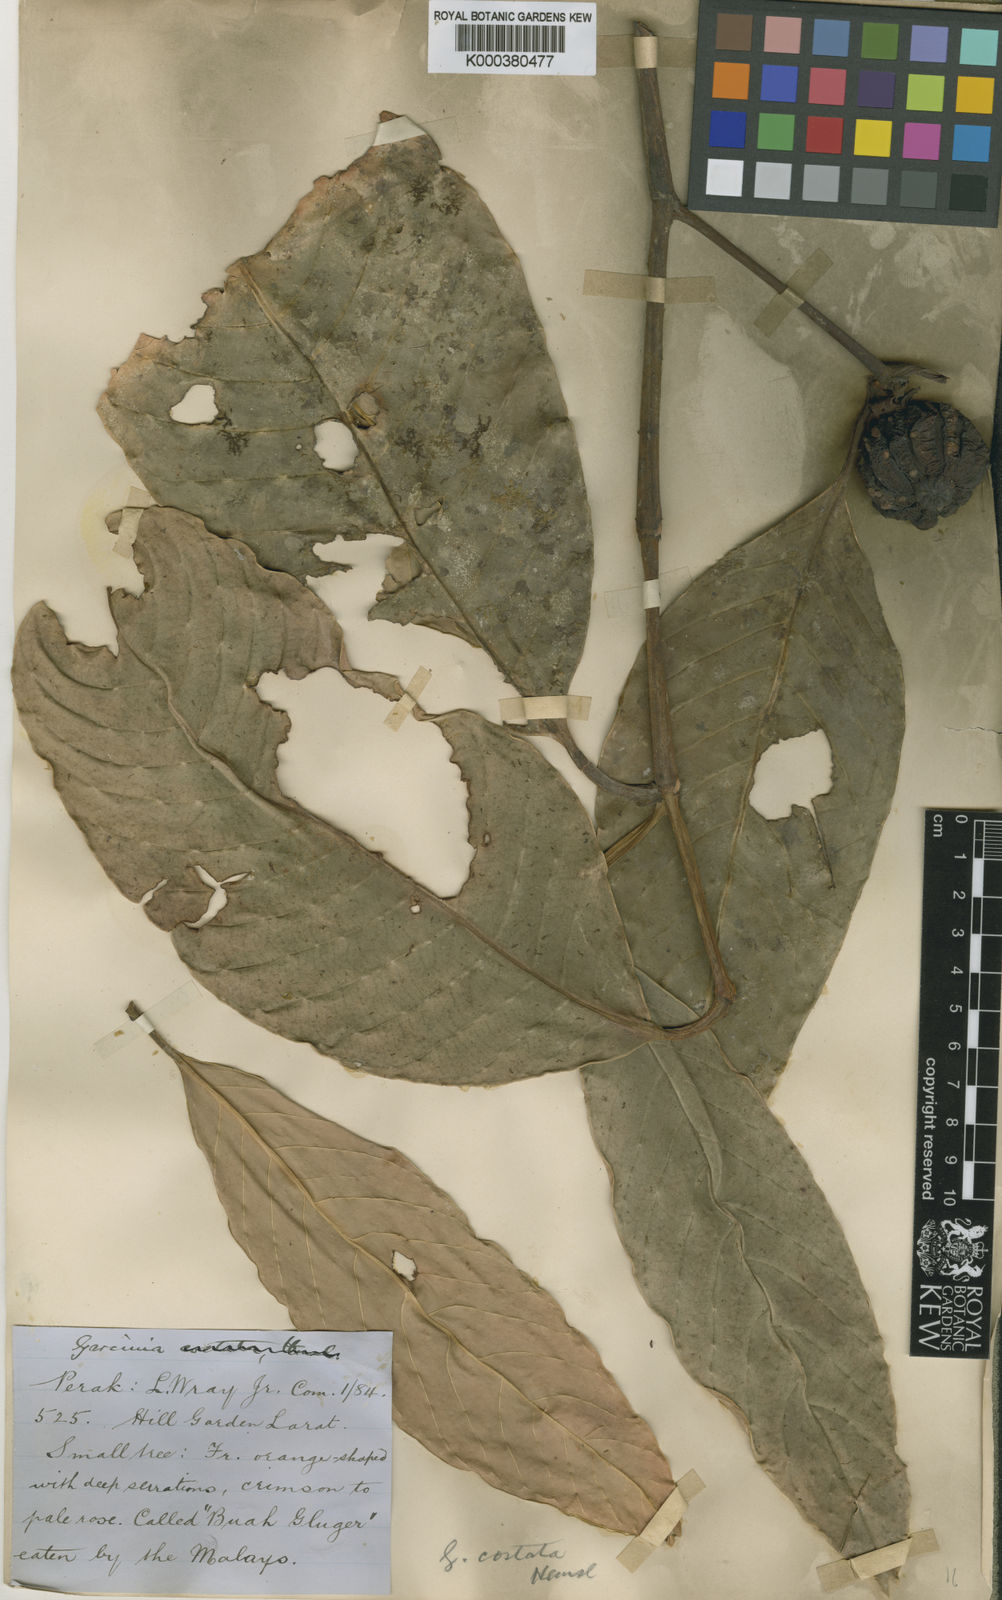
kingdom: Plantae
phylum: Tracheophyta
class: Magnoliopsida
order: Malpighiales
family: Clusiaceae
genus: Garcinia
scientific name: Garcinia costata
